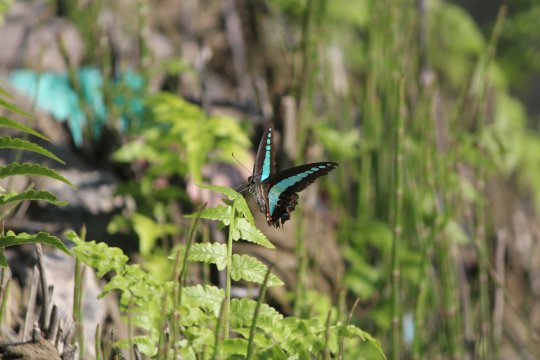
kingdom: Fungi
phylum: Ascomycota
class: Sordariomycetes
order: Microascales
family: Microascaceae
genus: Graphium
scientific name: Graphium sarpedon
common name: Common Bluebottle
